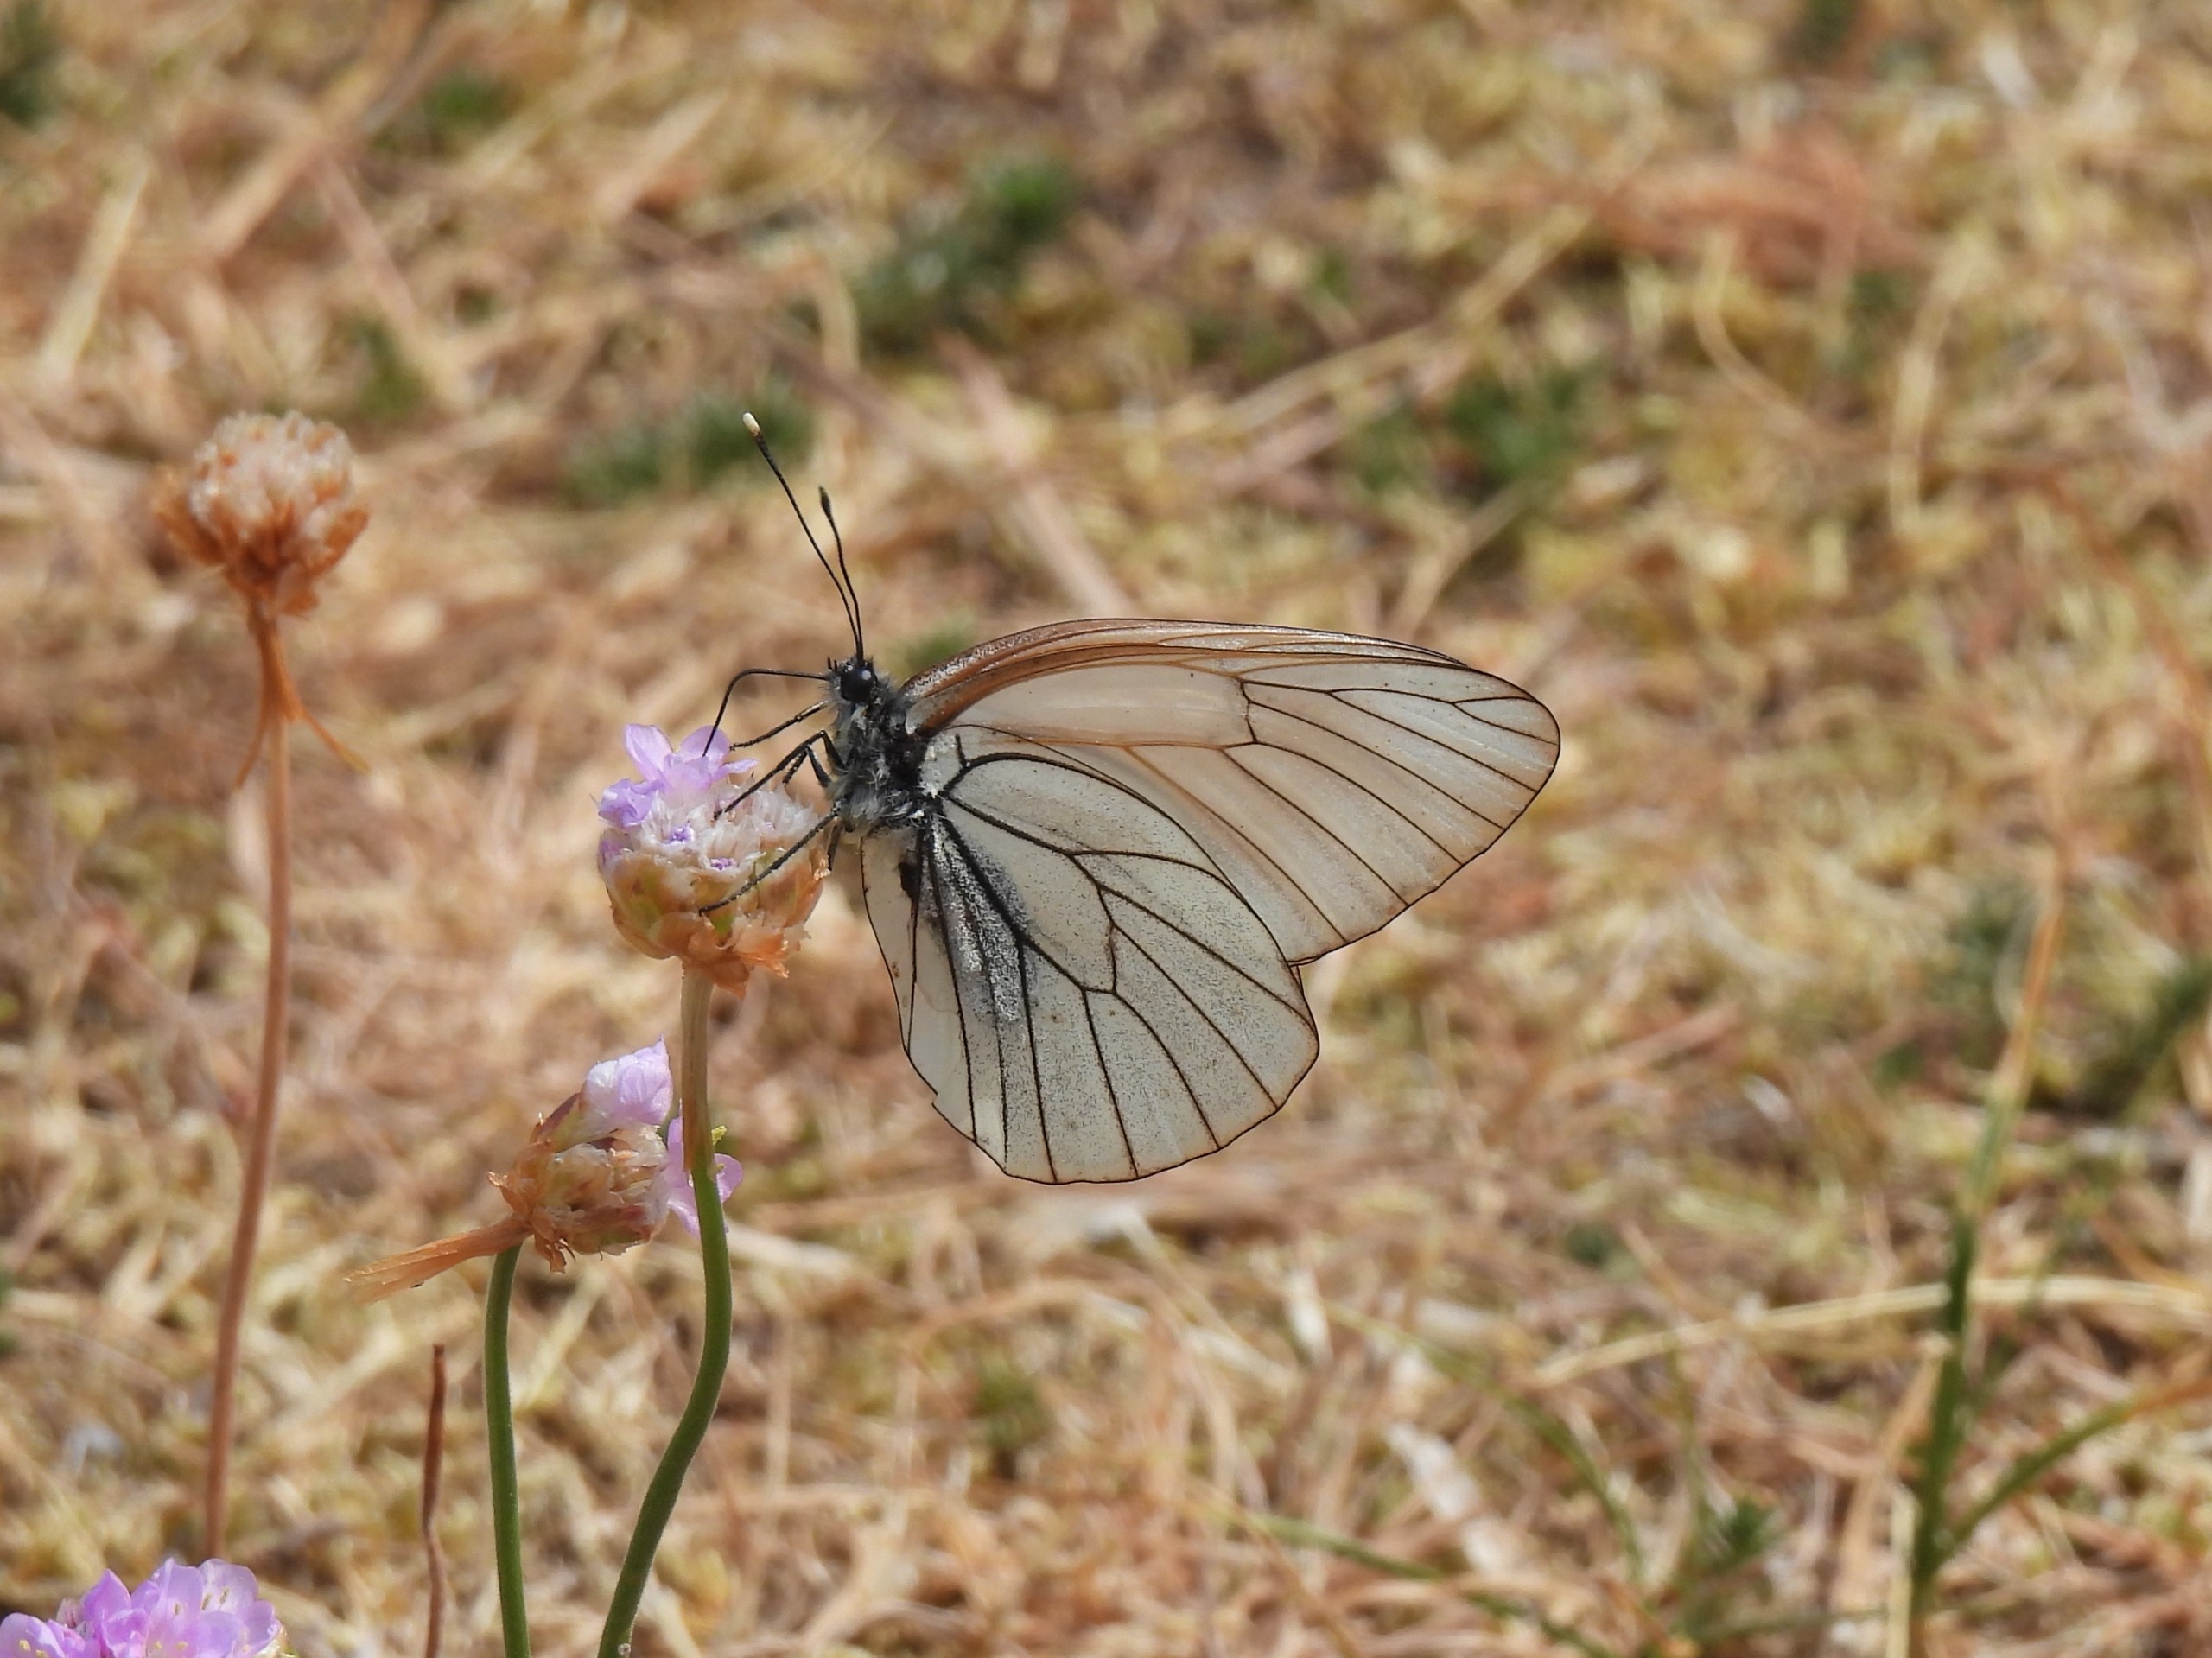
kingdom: Animalia
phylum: Arthropoda
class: Insecta
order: Lepidoptera
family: Pieridae
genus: Aporia
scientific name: Aporia crataegi
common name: Sortåret hvidvinge
